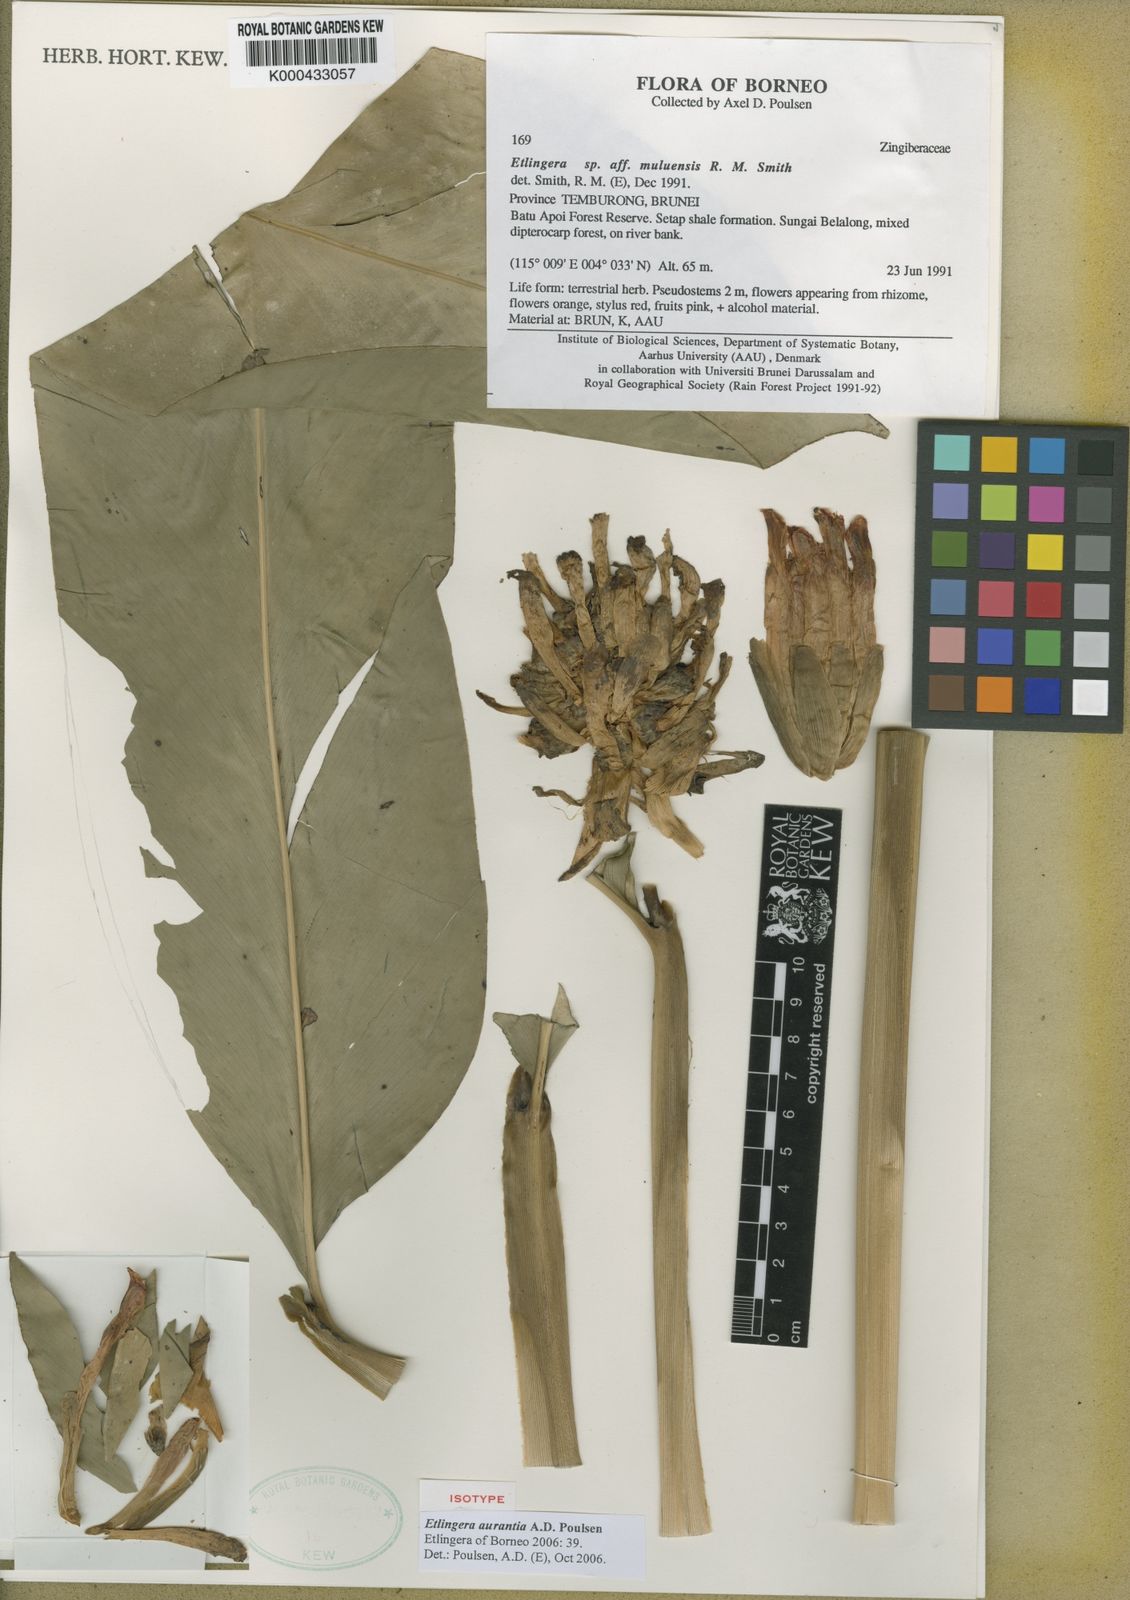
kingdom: Plantae
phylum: Tracheophyta
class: Liliopsida
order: Zingiberales
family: Zingiberaceae
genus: Etlingera
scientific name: Etlingera aurantia
